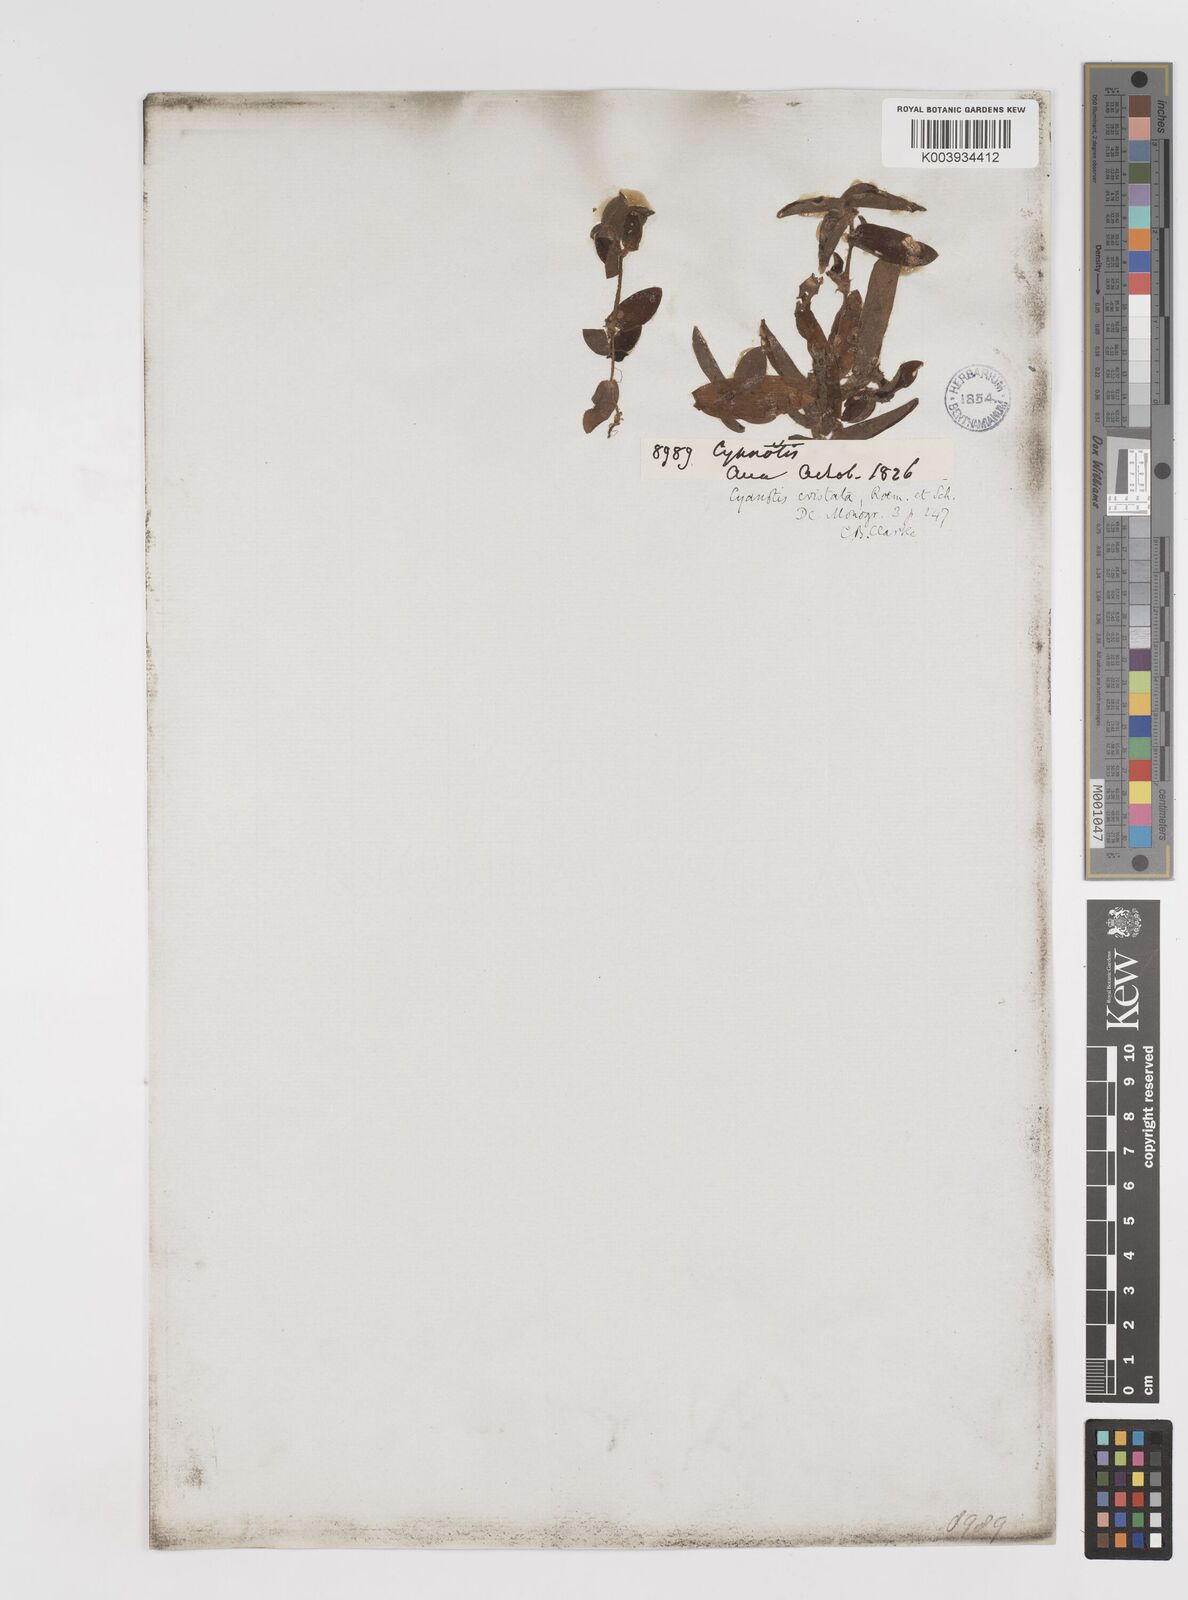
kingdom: Plantae
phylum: Tracheophyta
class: Liliopsida
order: Commelinales
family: Commelinaceae
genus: Cyanotis
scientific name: Cyanotis cristata
